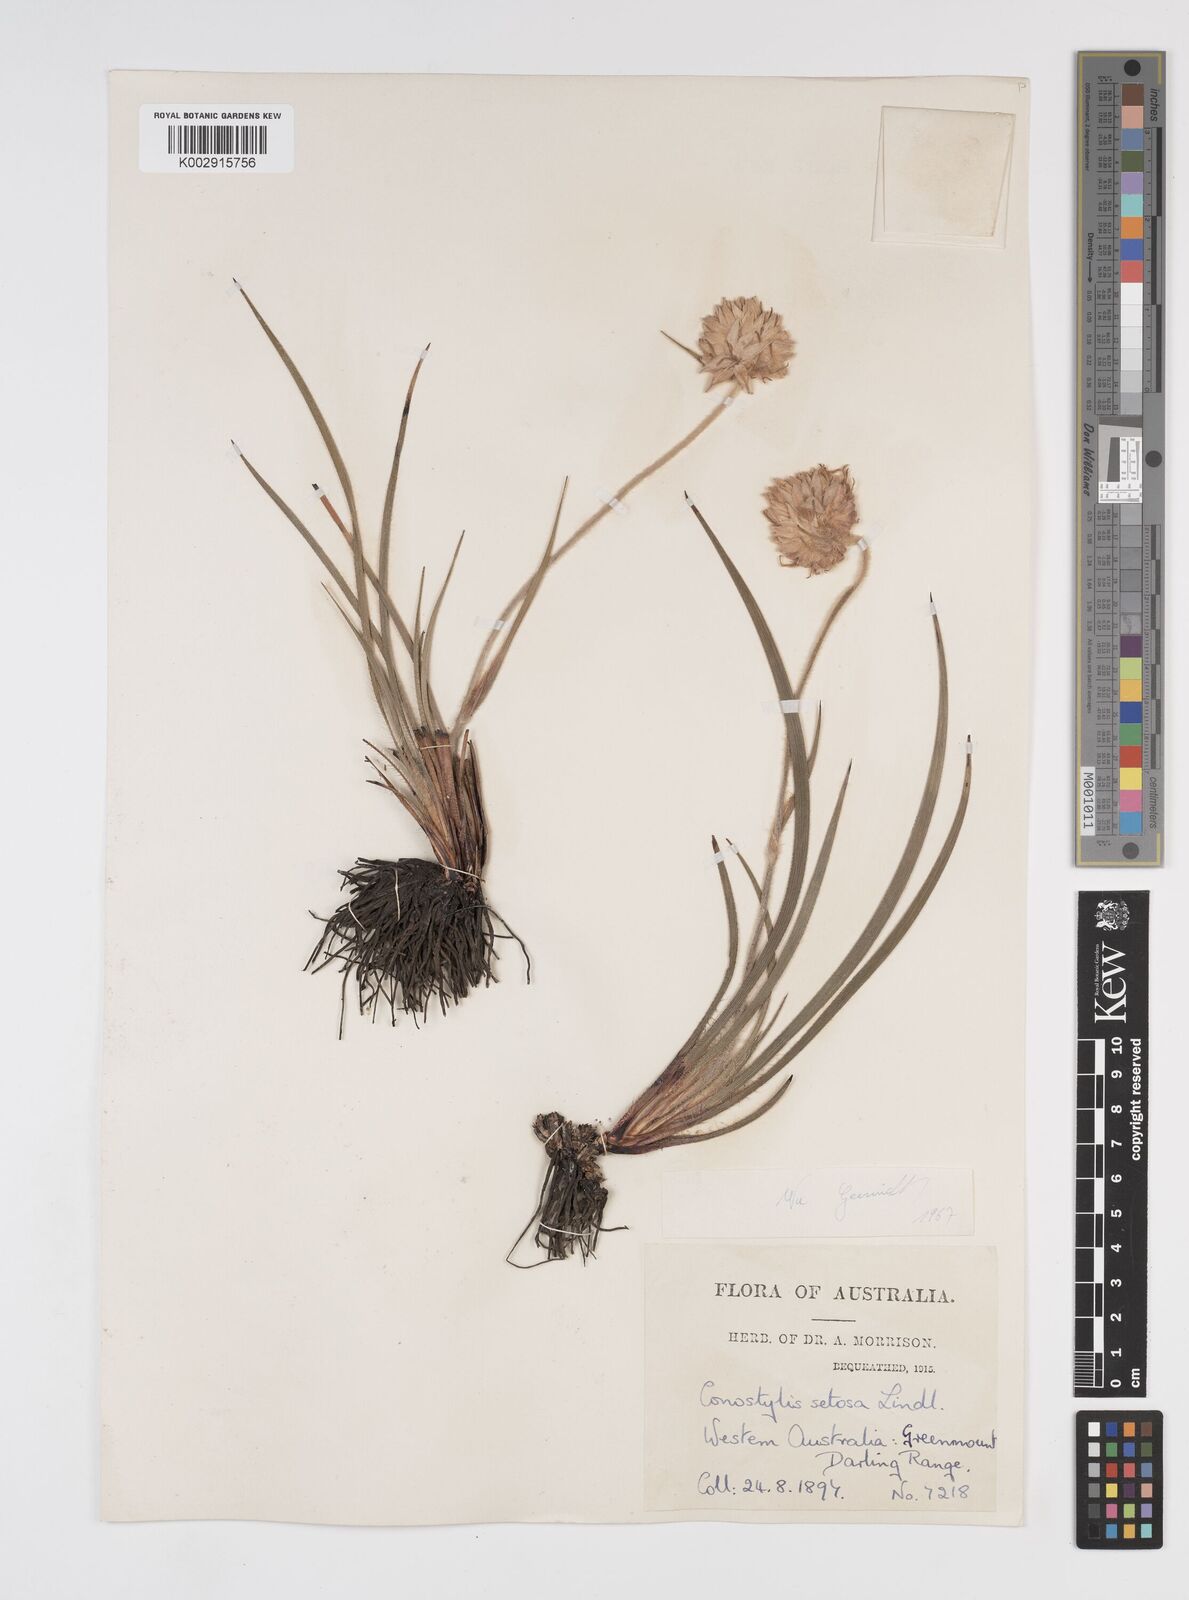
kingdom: Plantae
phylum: Tracheophyta
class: Liliopsida
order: Commelinales
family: Haemodoraceae
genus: Conostylis
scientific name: Conostylis setosa
